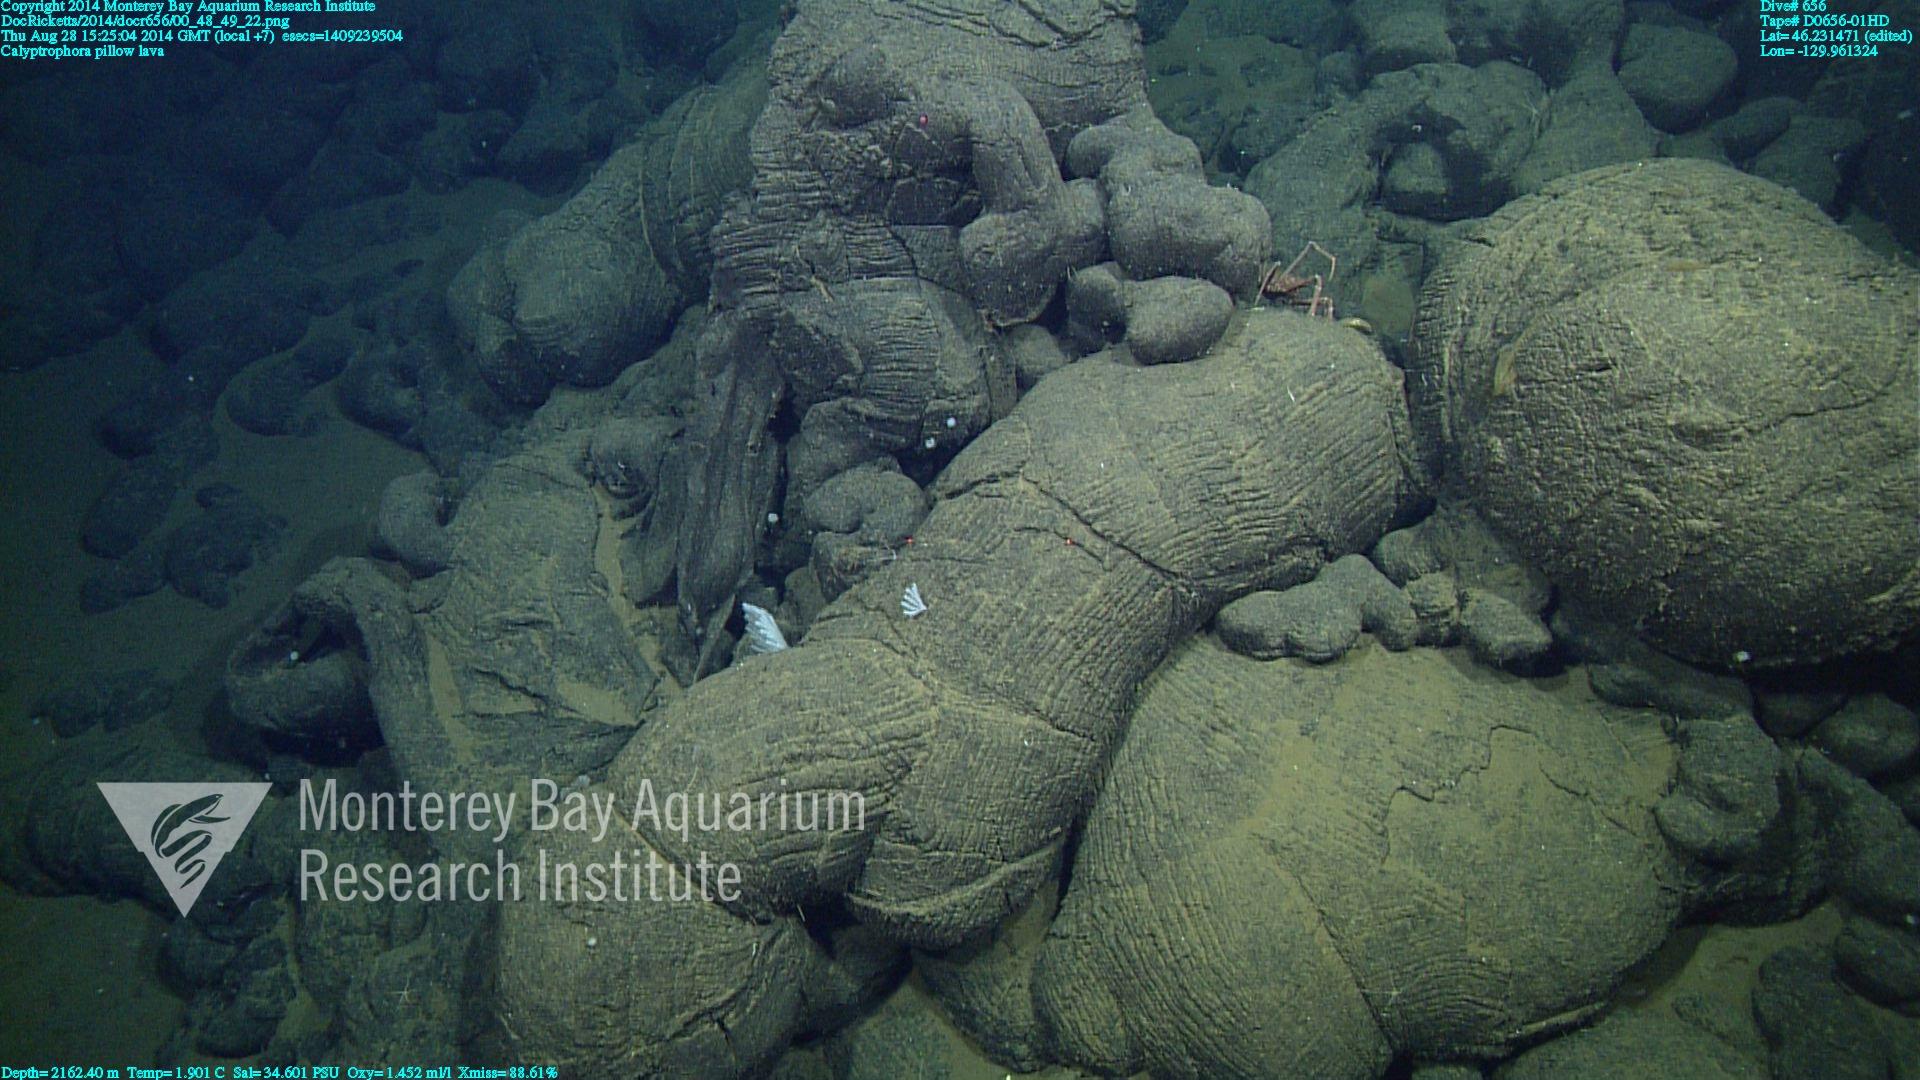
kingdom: Animalia
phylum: Cnidaria
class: Anthozoa
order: Scleralcyonacea
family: Primnoidae
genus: Calyptrophora
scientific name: Calyptrophora
